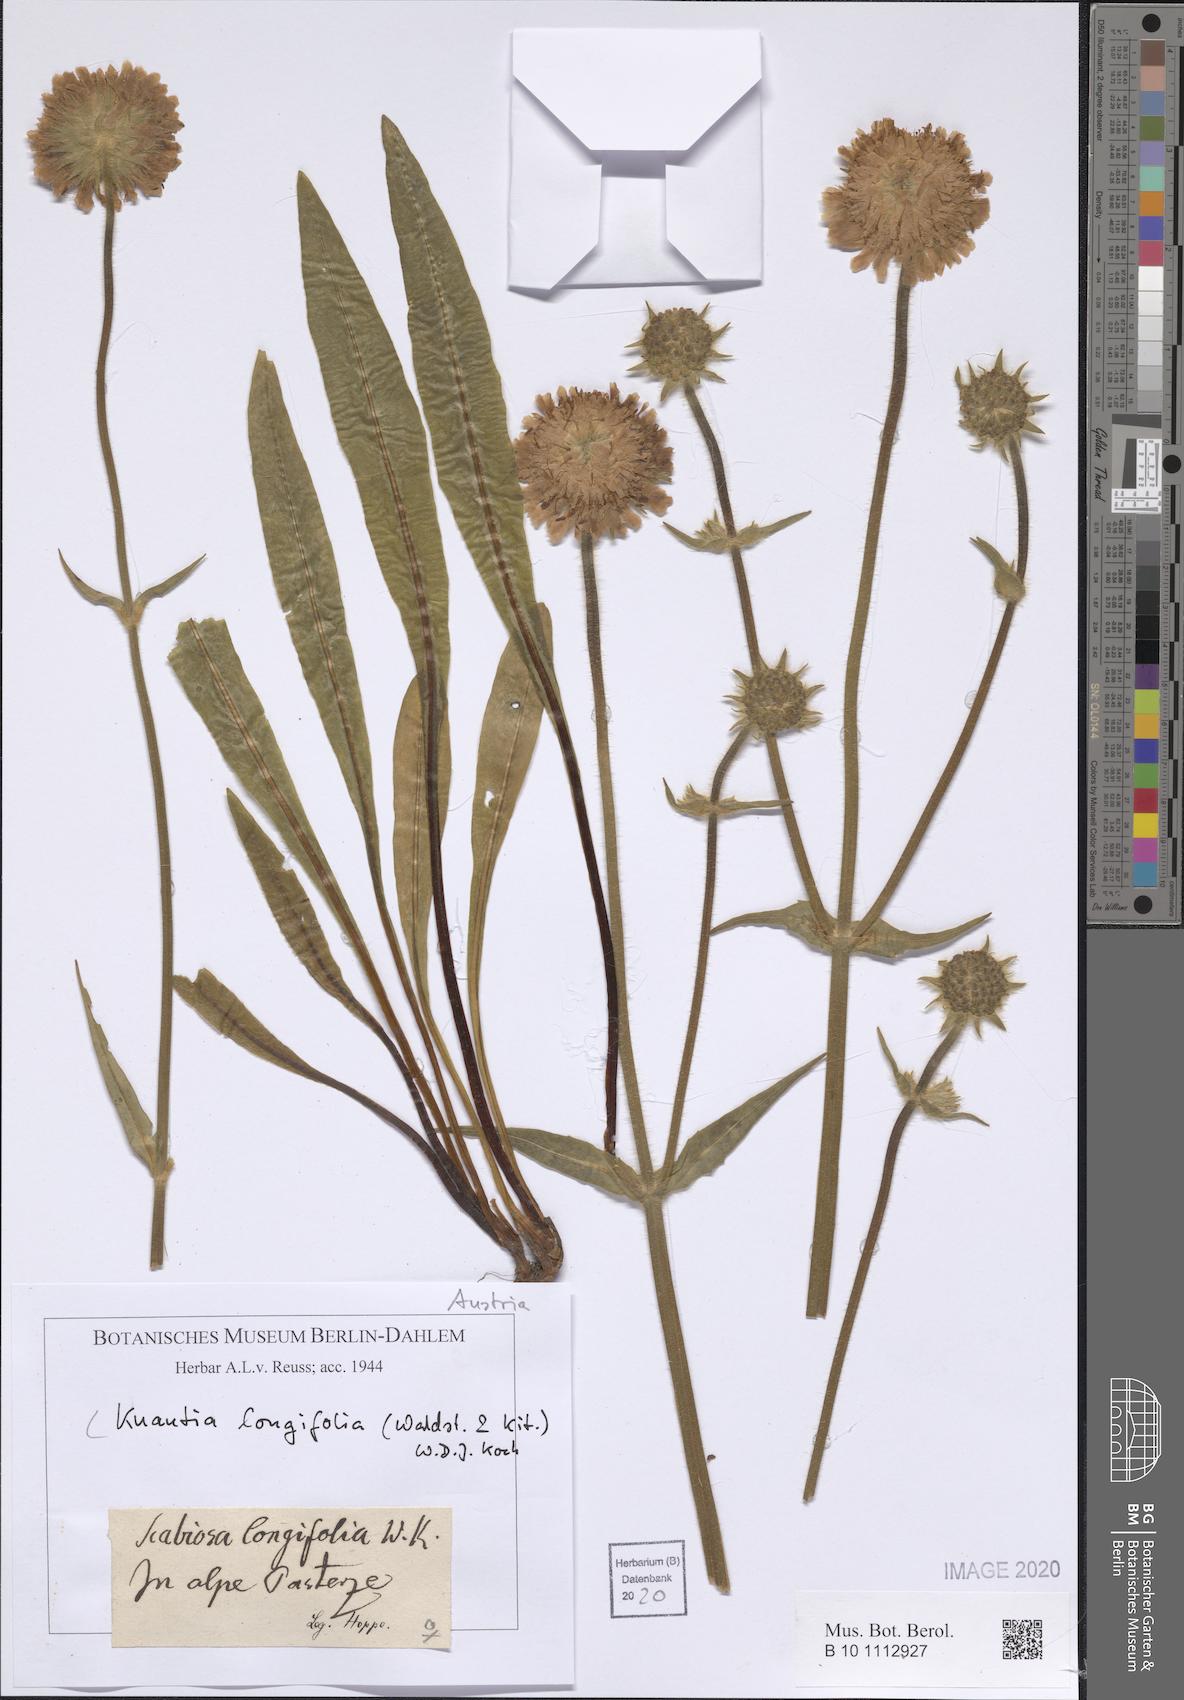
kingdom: Plantae
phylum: Tracheophyta
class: Magnoliopsida
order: Dipsacales
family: Caprifoliaceae
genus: Knautia
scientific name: Knautia longifolia
